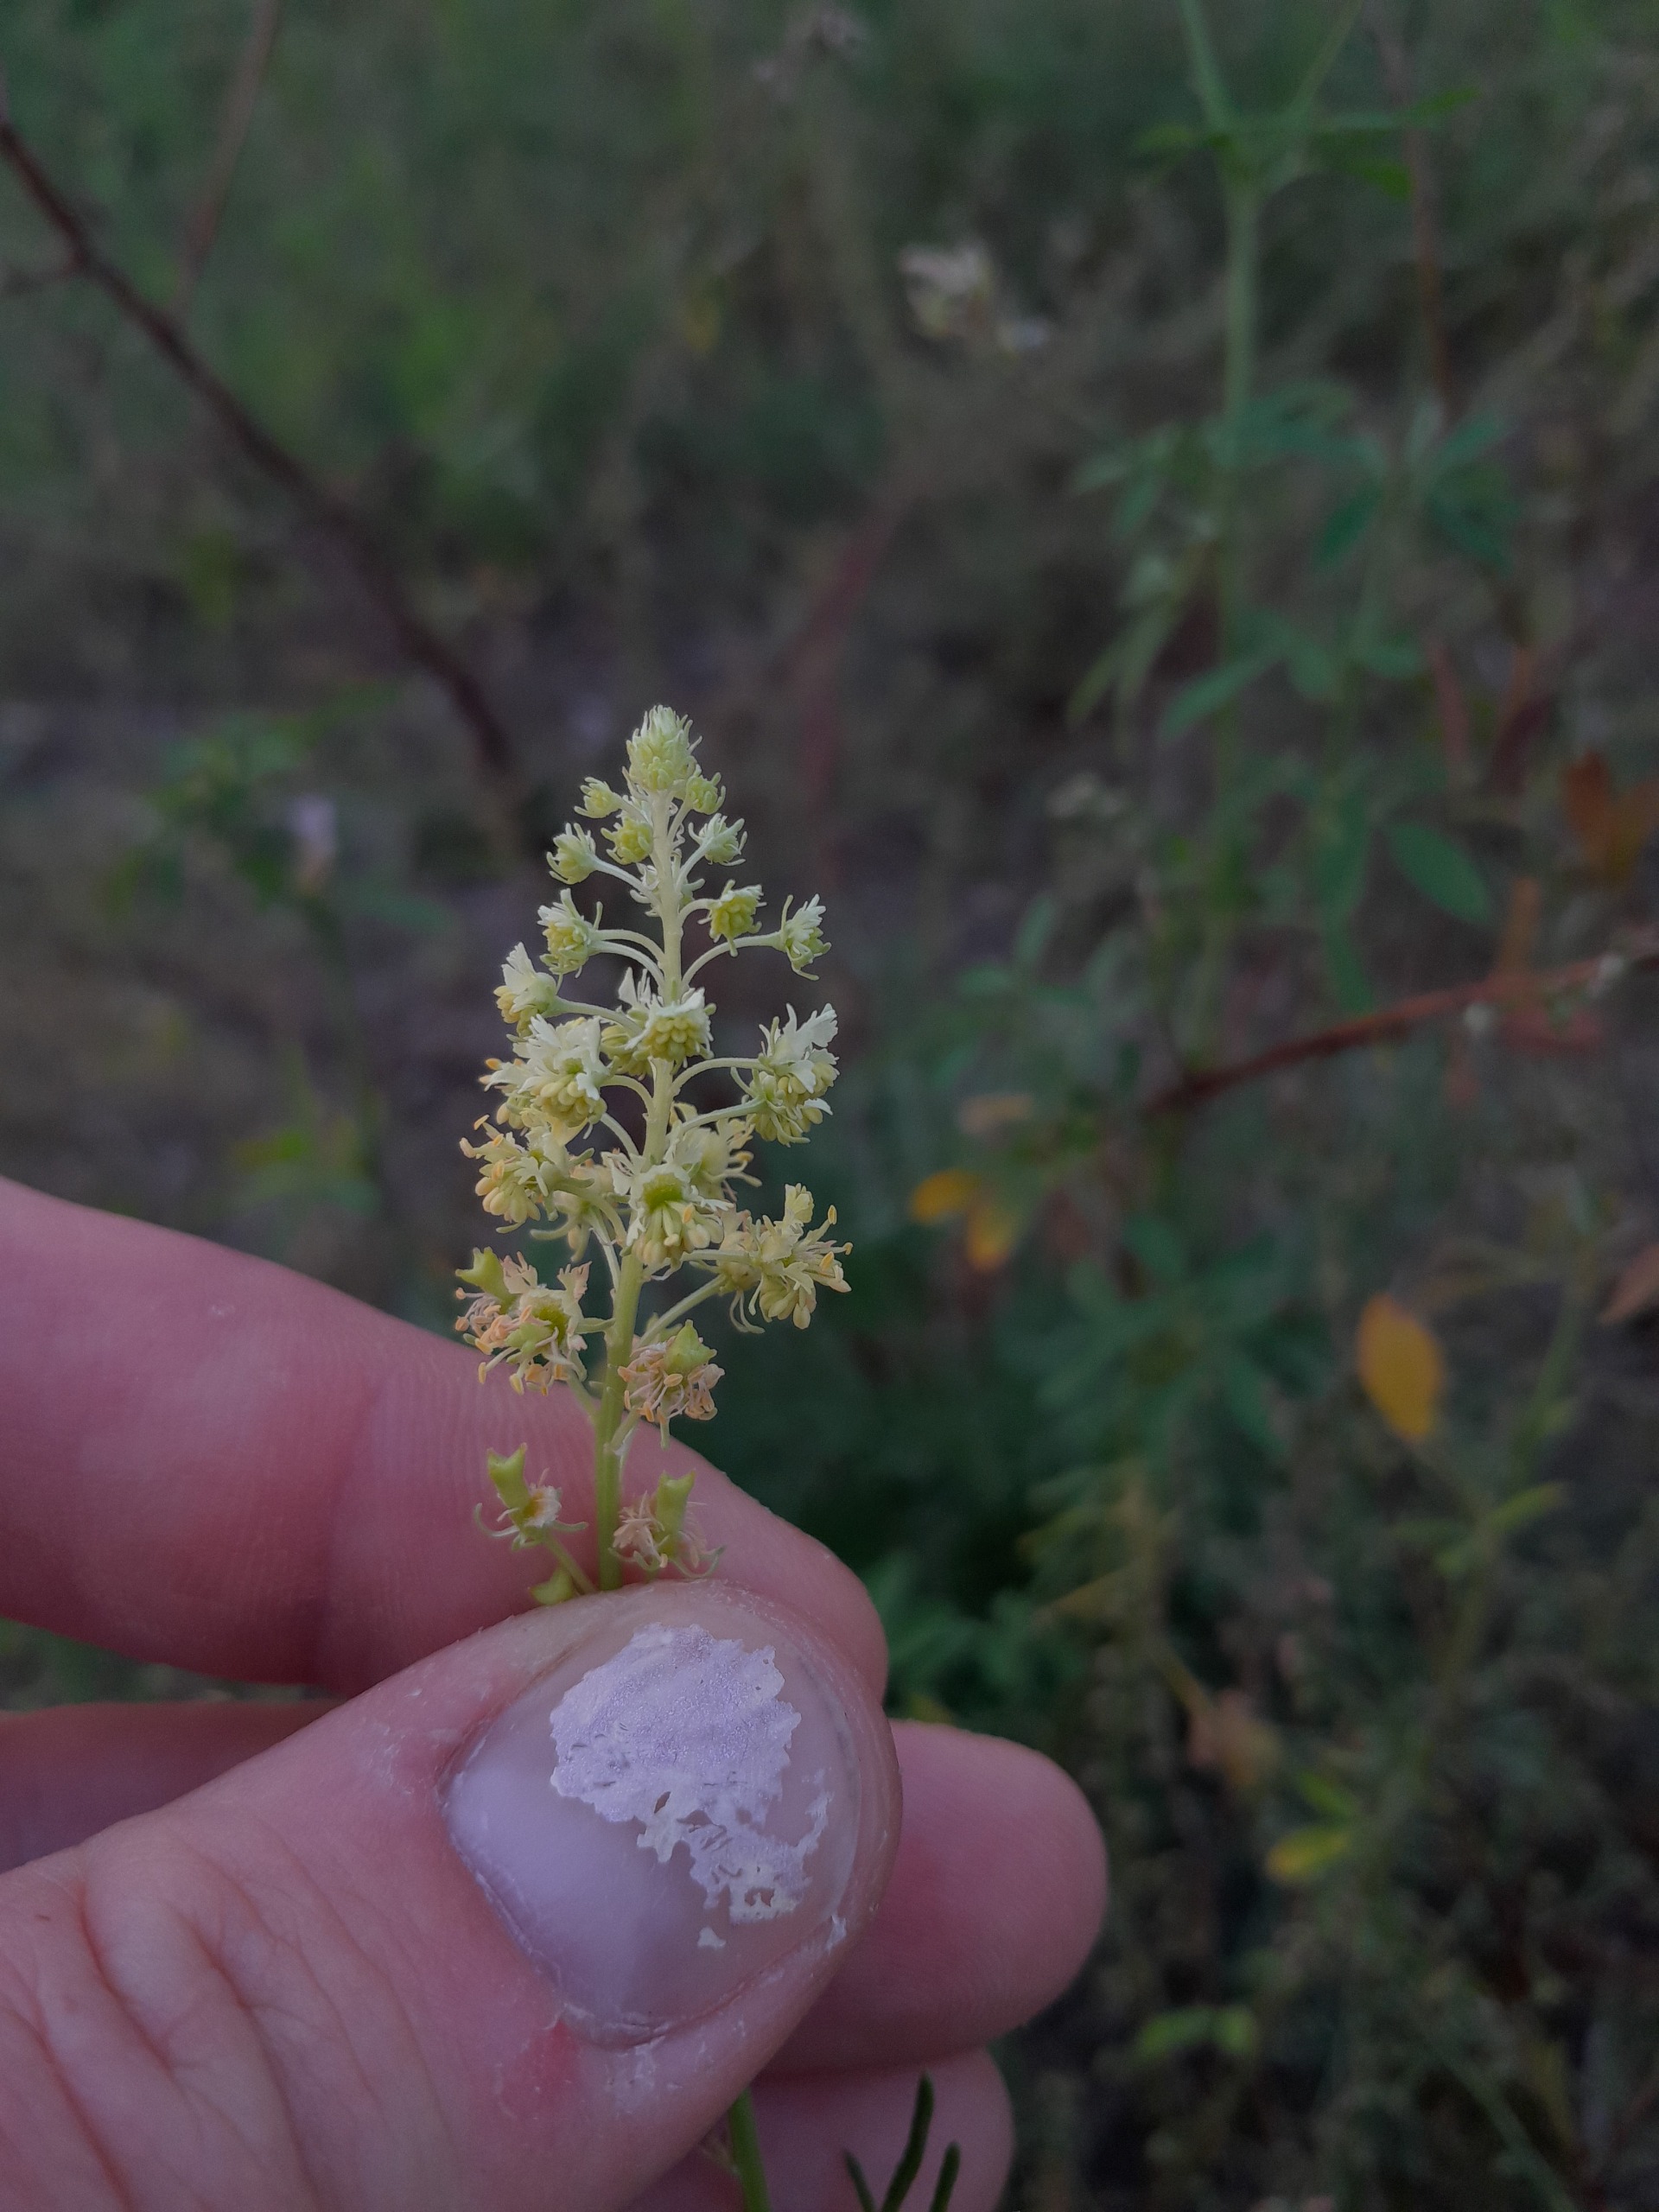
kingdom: Plantae
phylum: Tracheophyta
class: Magnoliopsida
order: Brassicales
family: Resedaceae
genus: Reseda
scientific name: Reseda lutea
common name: Gul reseda
